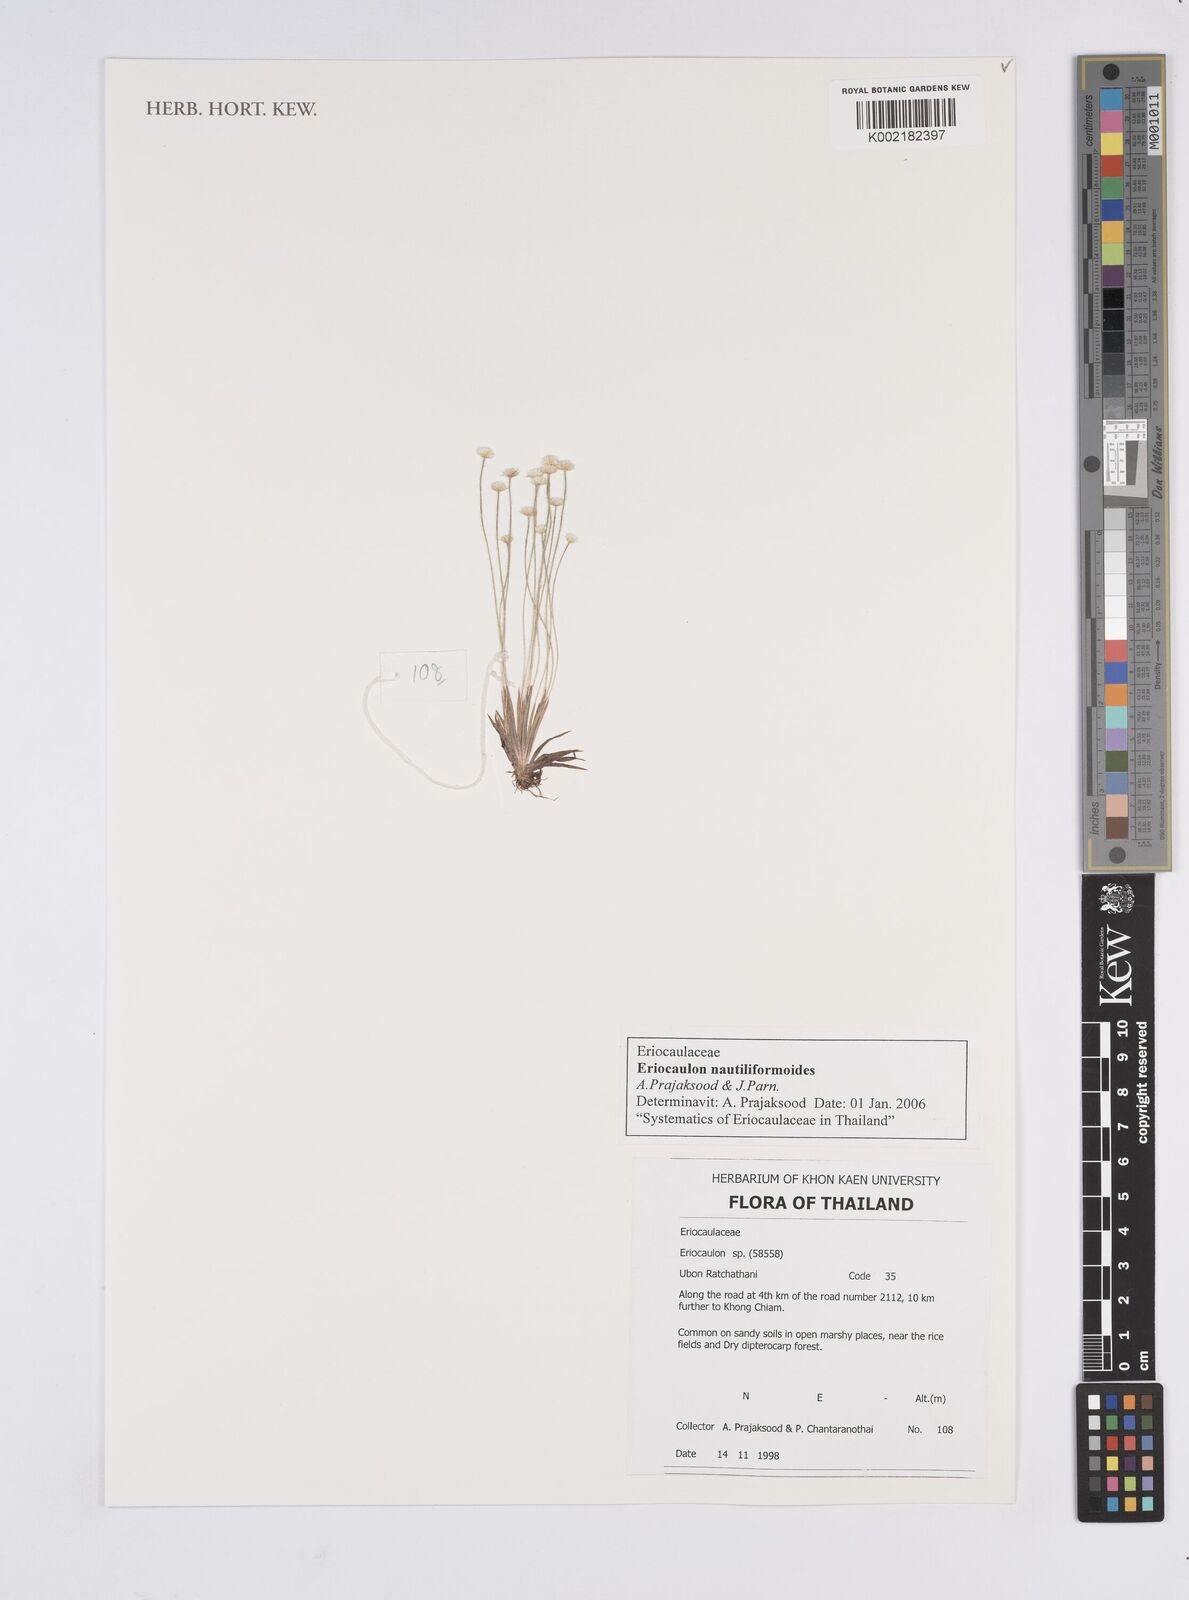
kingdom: Plantae
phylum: Tracheophyta
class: Liliopsida
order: Poales
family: Eriocaulaceae
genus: Eriocaulon
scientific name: Eriocaulon nautiliformoides
